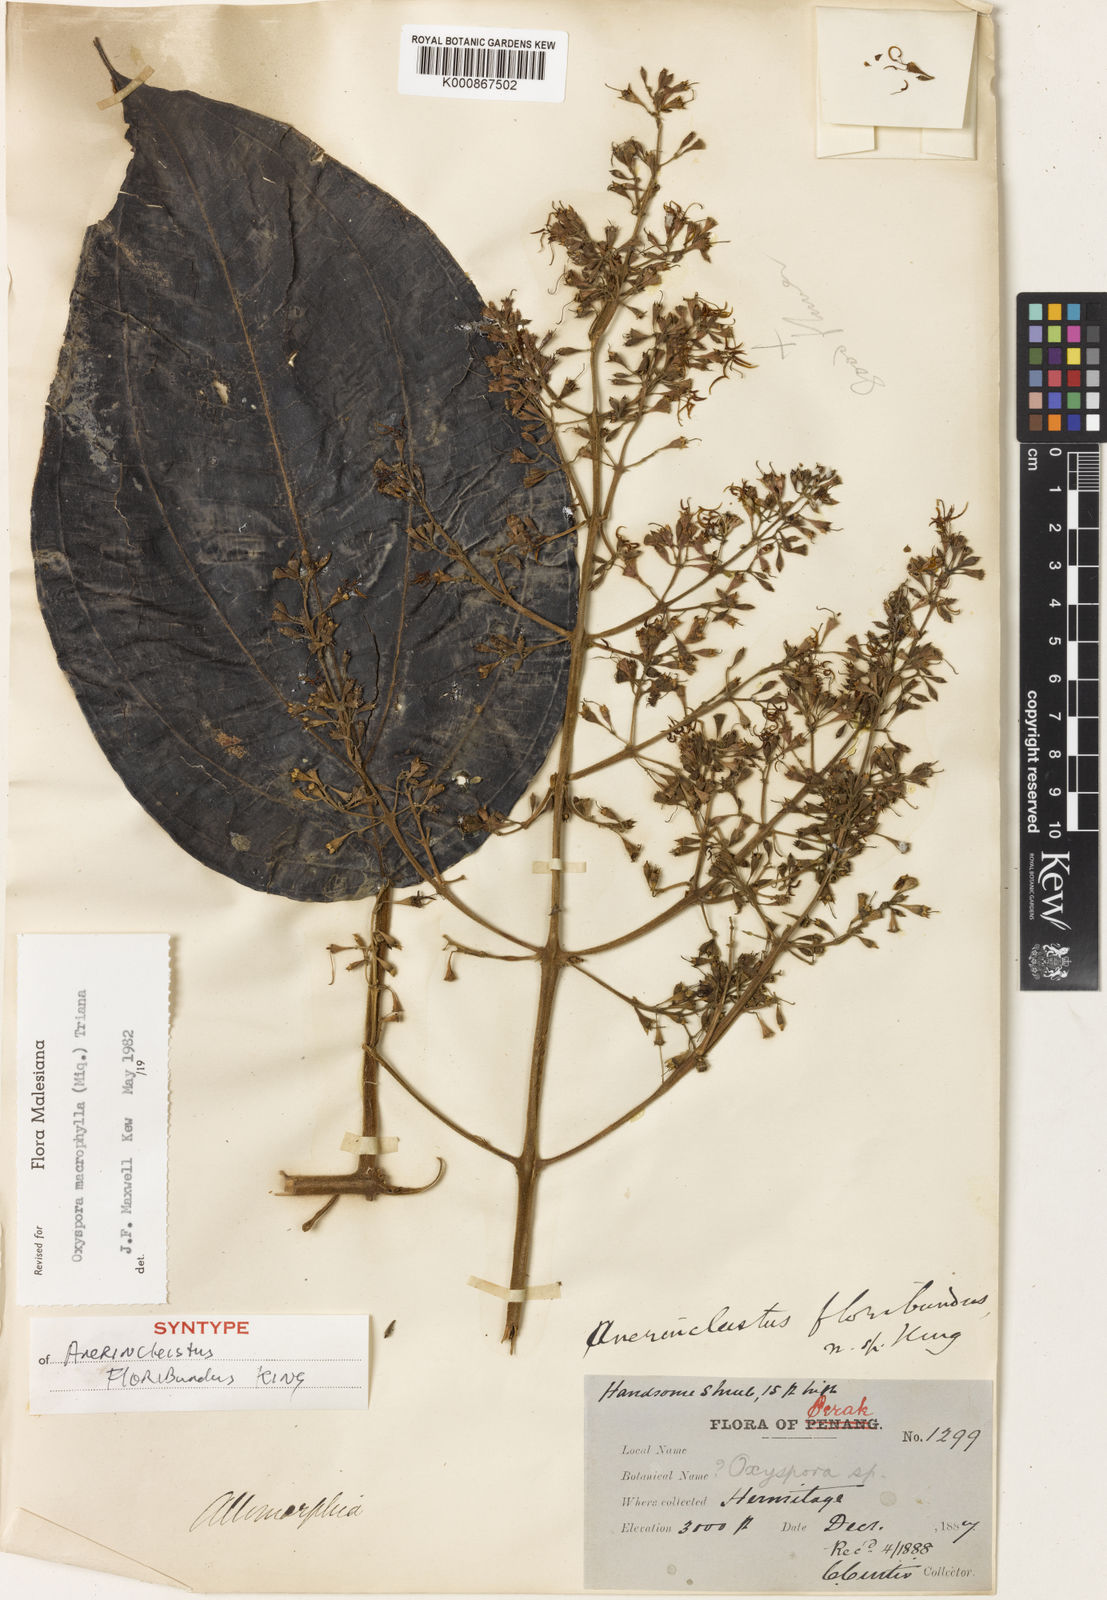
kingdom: Plantae
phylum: Tracheophyta
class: Magnoliopsida
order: Myrtales
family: Melastomataceae
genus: Hylocharis
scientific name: Hylocharis macrophylla
